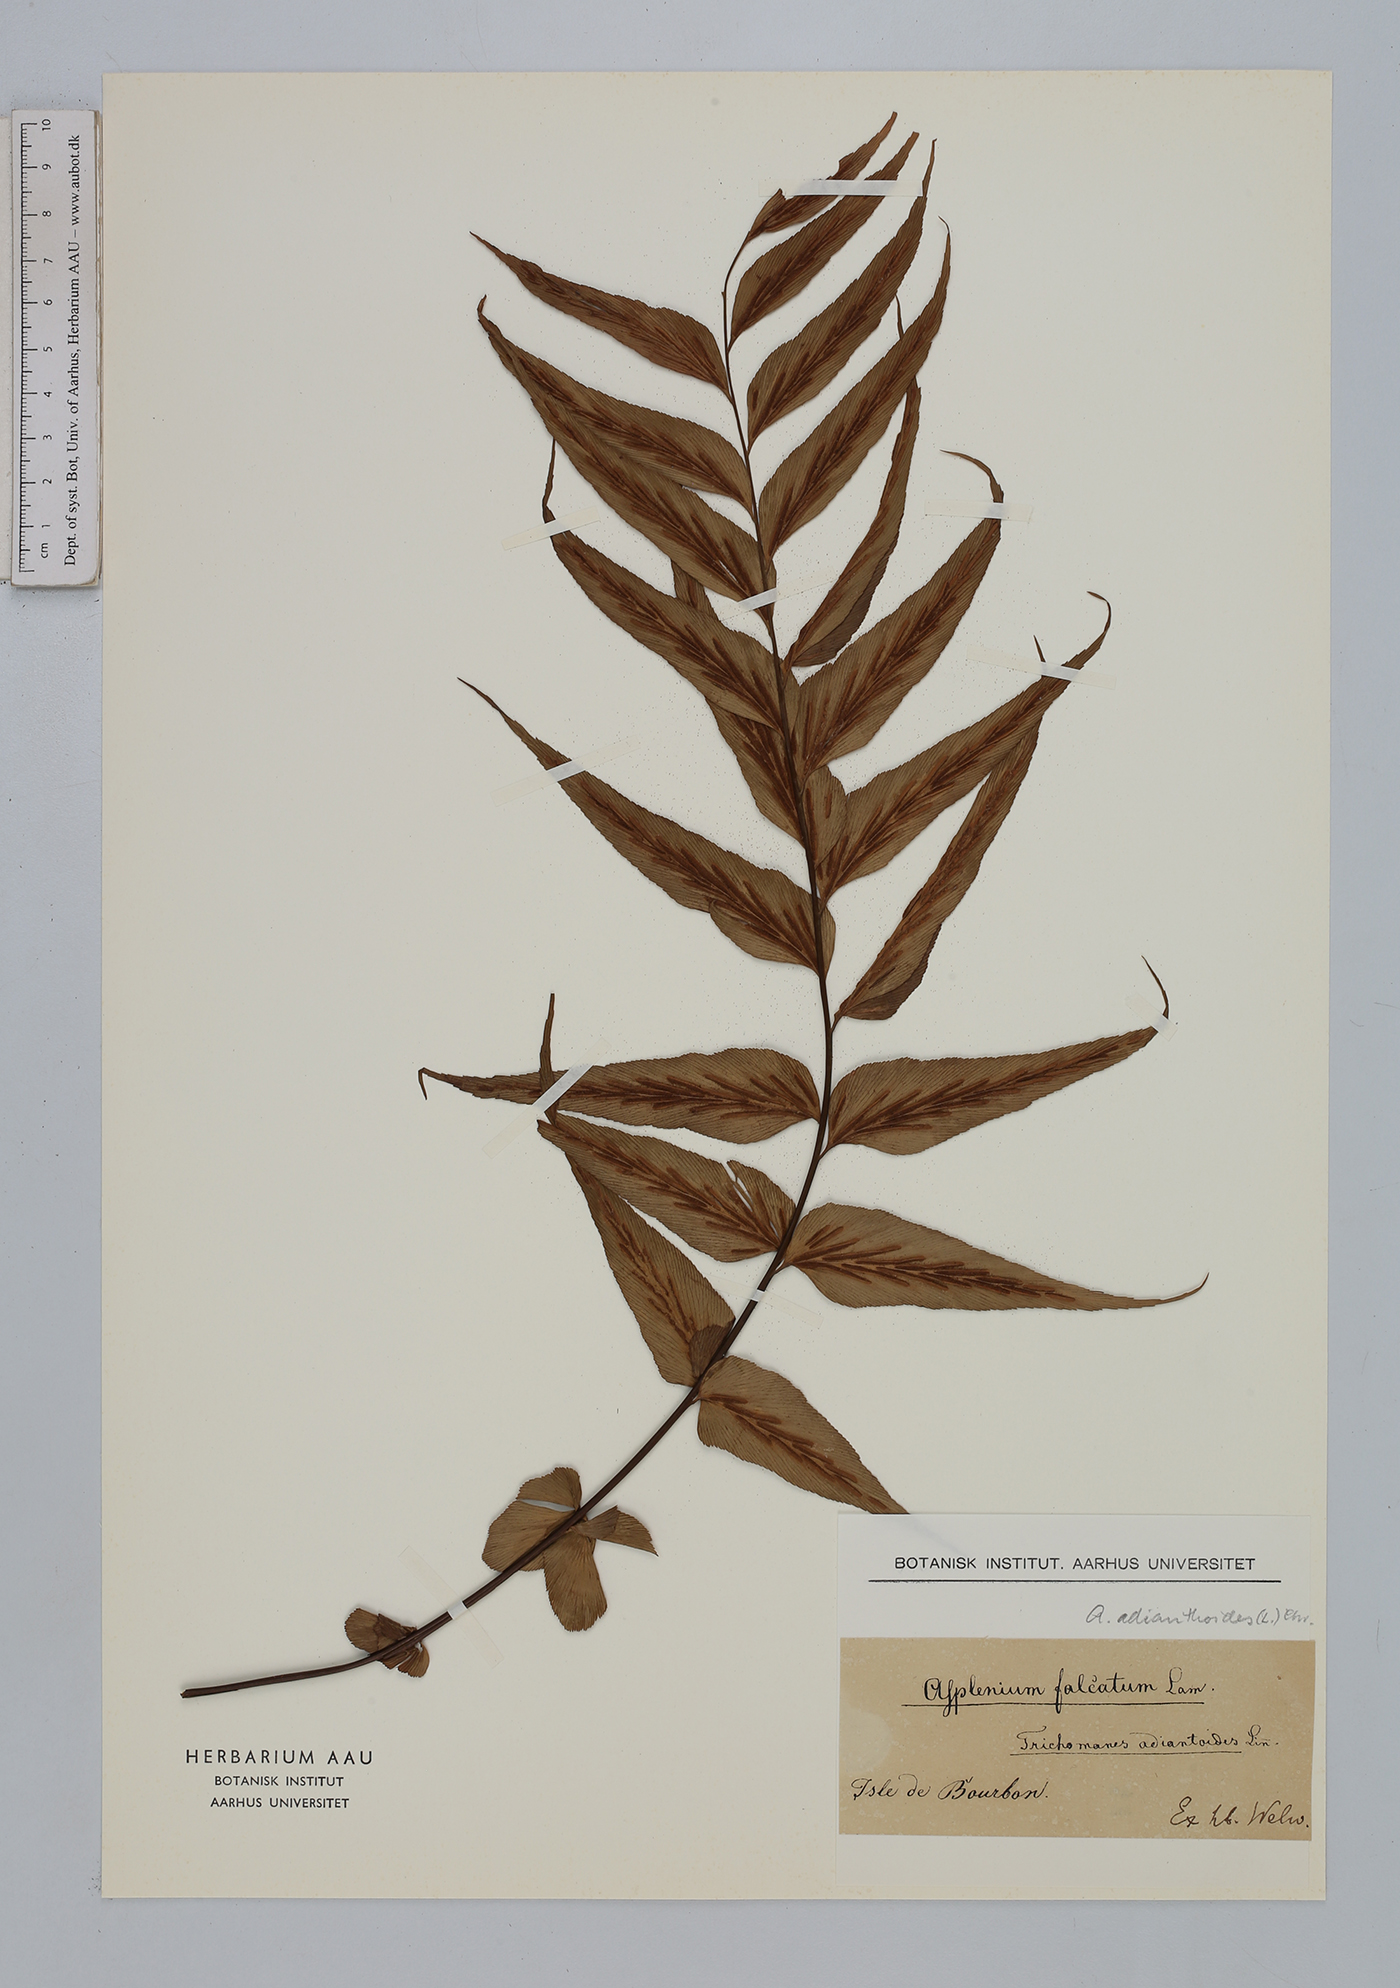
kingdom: Plantae
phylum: Tracheophyta
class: Polypodiopsida
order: Polypodiales
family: Aspleniaceae
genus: Asplenium
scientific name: Asplenium aethiopicum
